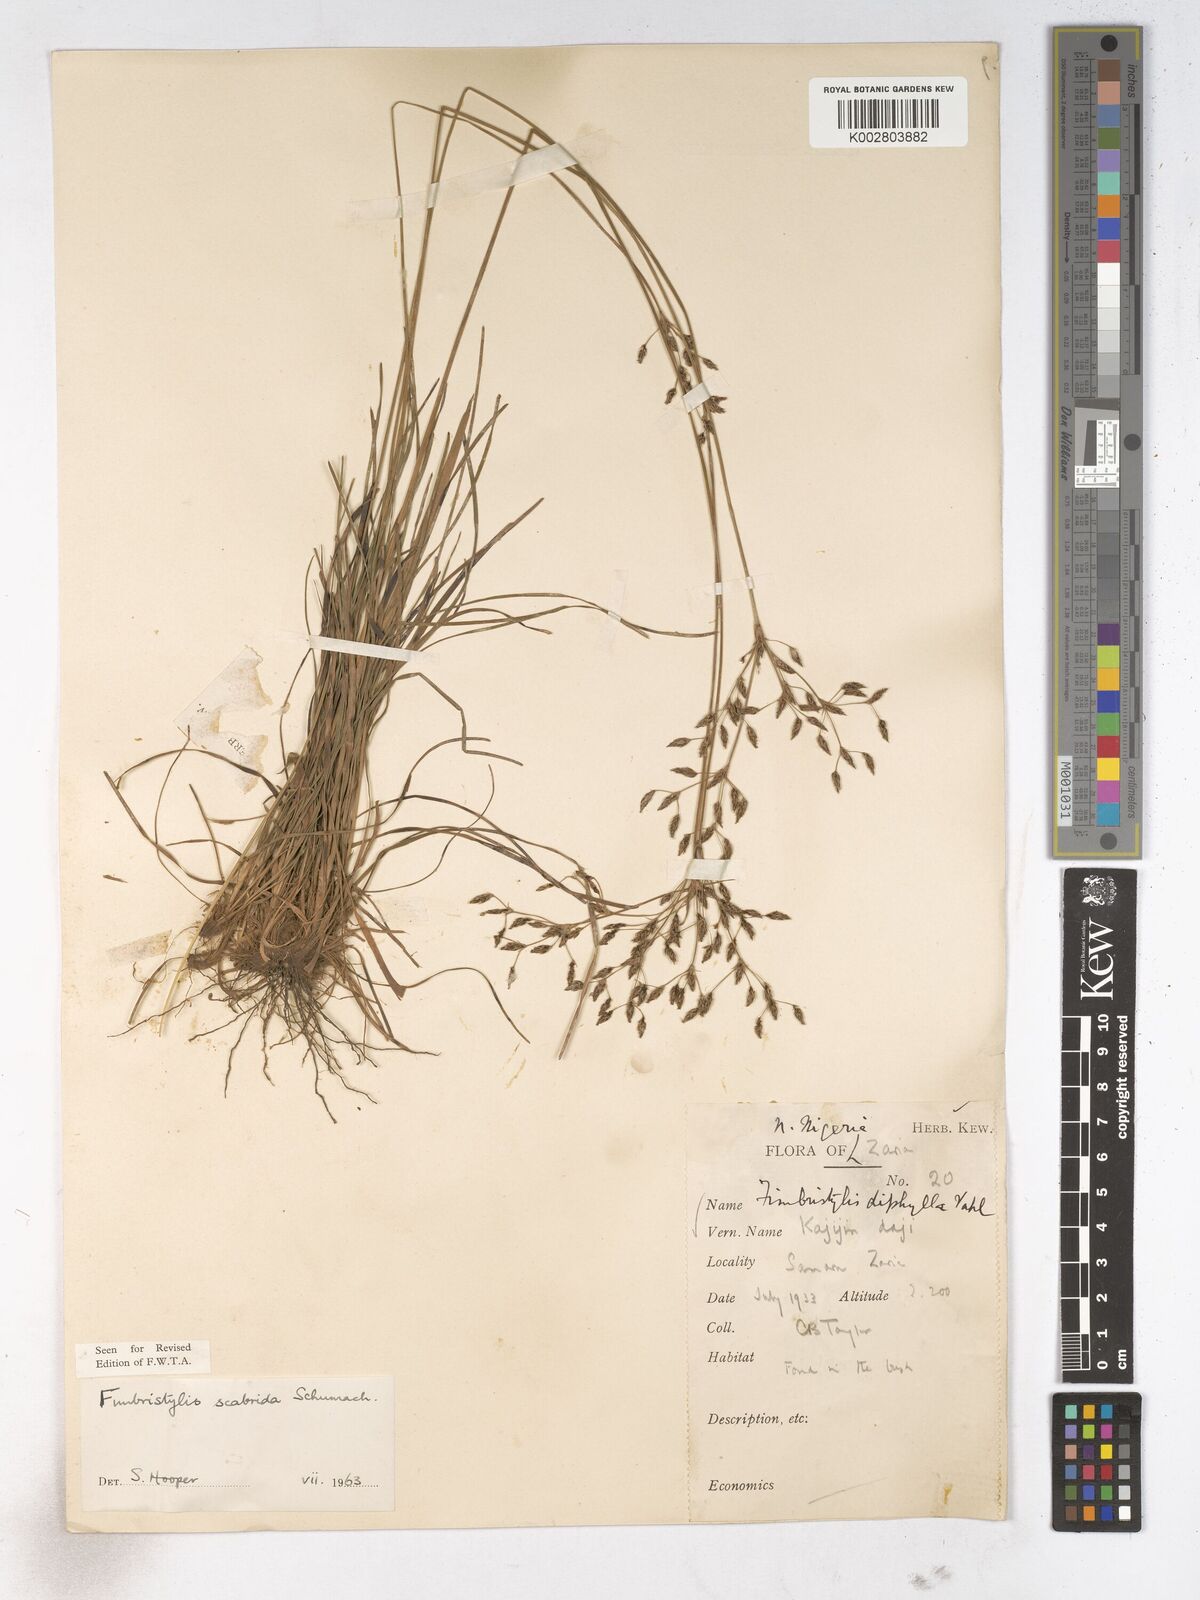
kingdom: Plantae
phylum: Tracheophyta
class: Liliopsida
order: Poales
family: Cyperaceae
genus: Fimbristylis
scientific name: Fimbristylis scabrida
